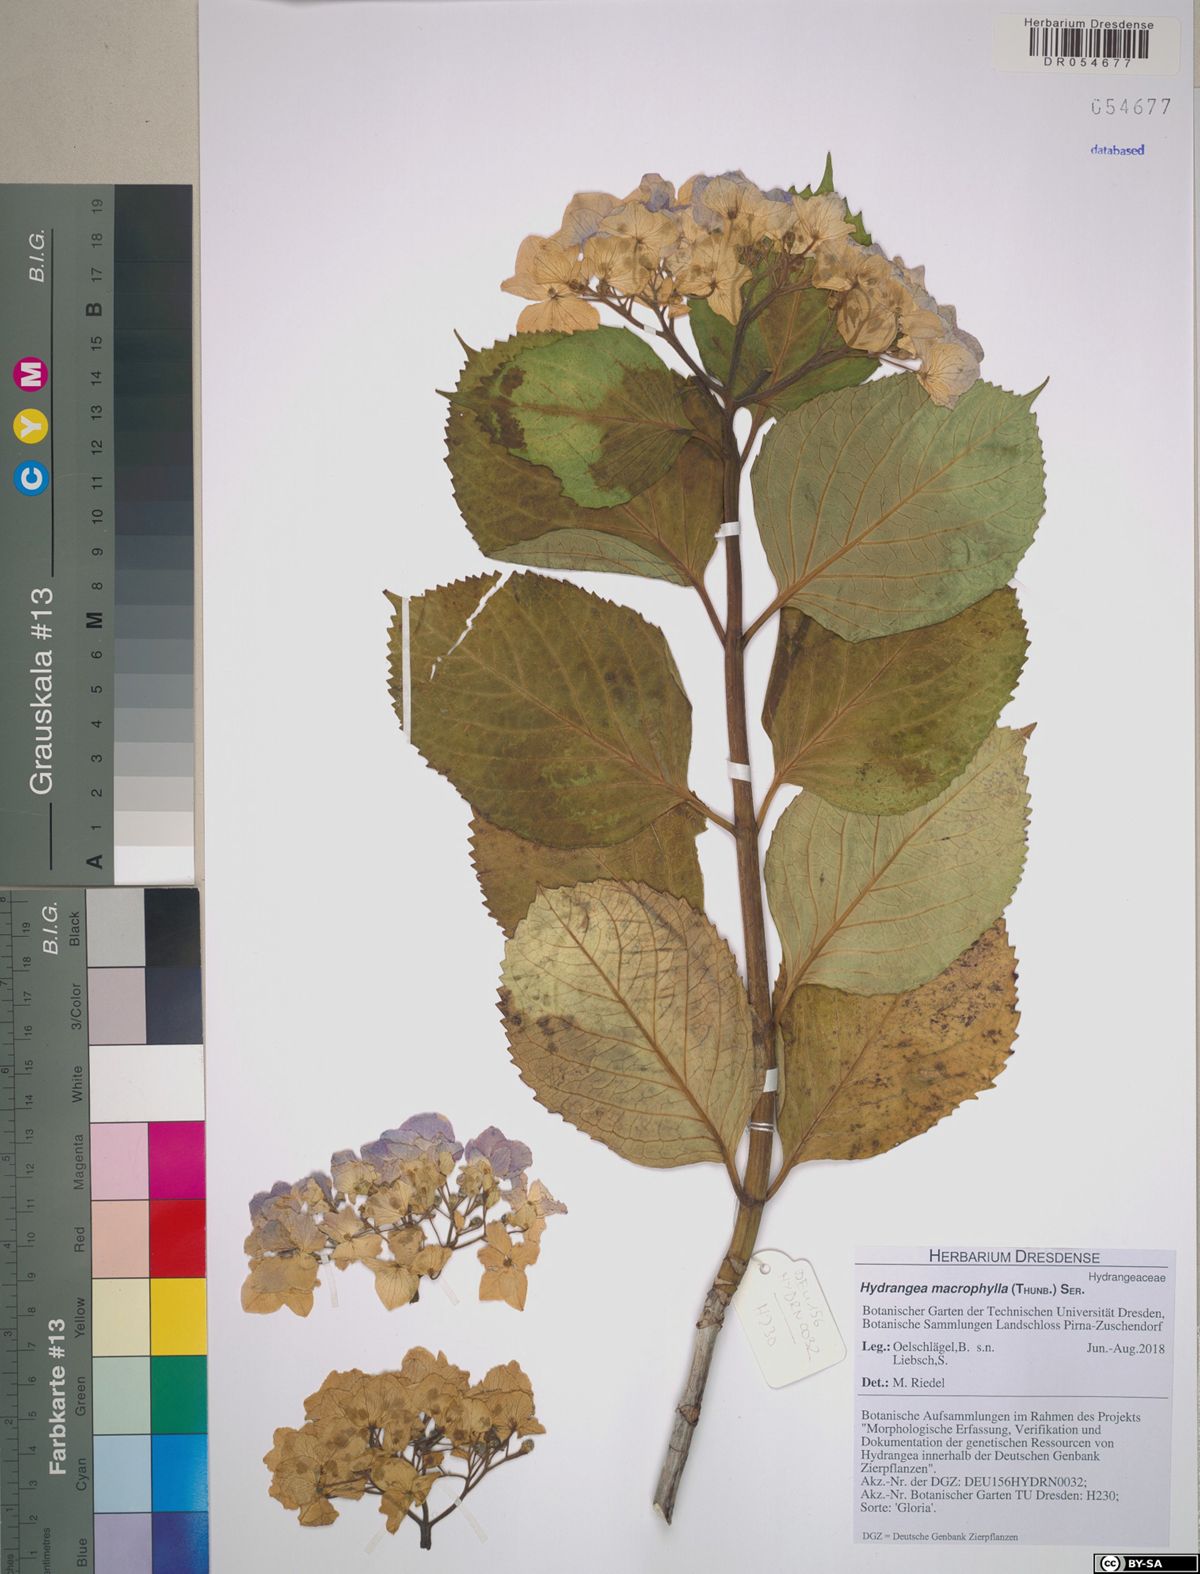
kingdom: Plantae
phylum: Tracheophyta
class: Magnoliopsida
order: Cornales
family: Hydrangeaceae
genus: Hydrangea
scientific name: Hydrangea macrophylla
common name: Hydrangea
